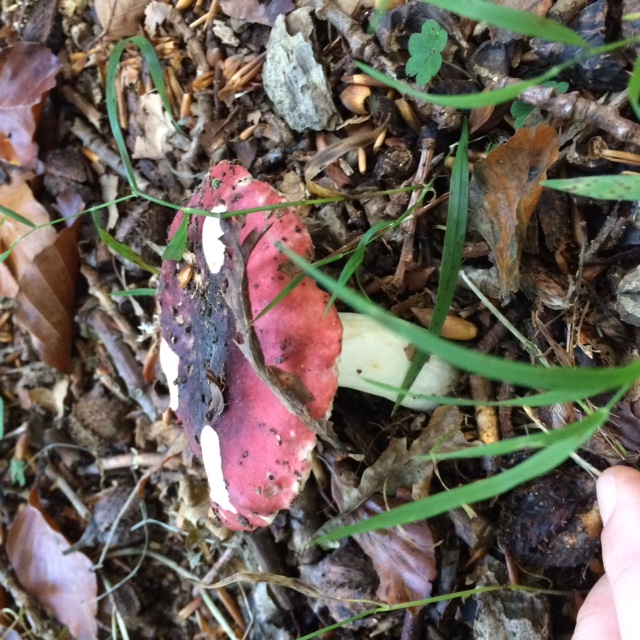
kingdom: Fungi
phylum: Basidiomycota
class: Agaricomycetes
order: Russulales
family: Russulaceae
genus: Russula
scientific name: Russula atropurpurea
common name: purpurbroget skørhat
